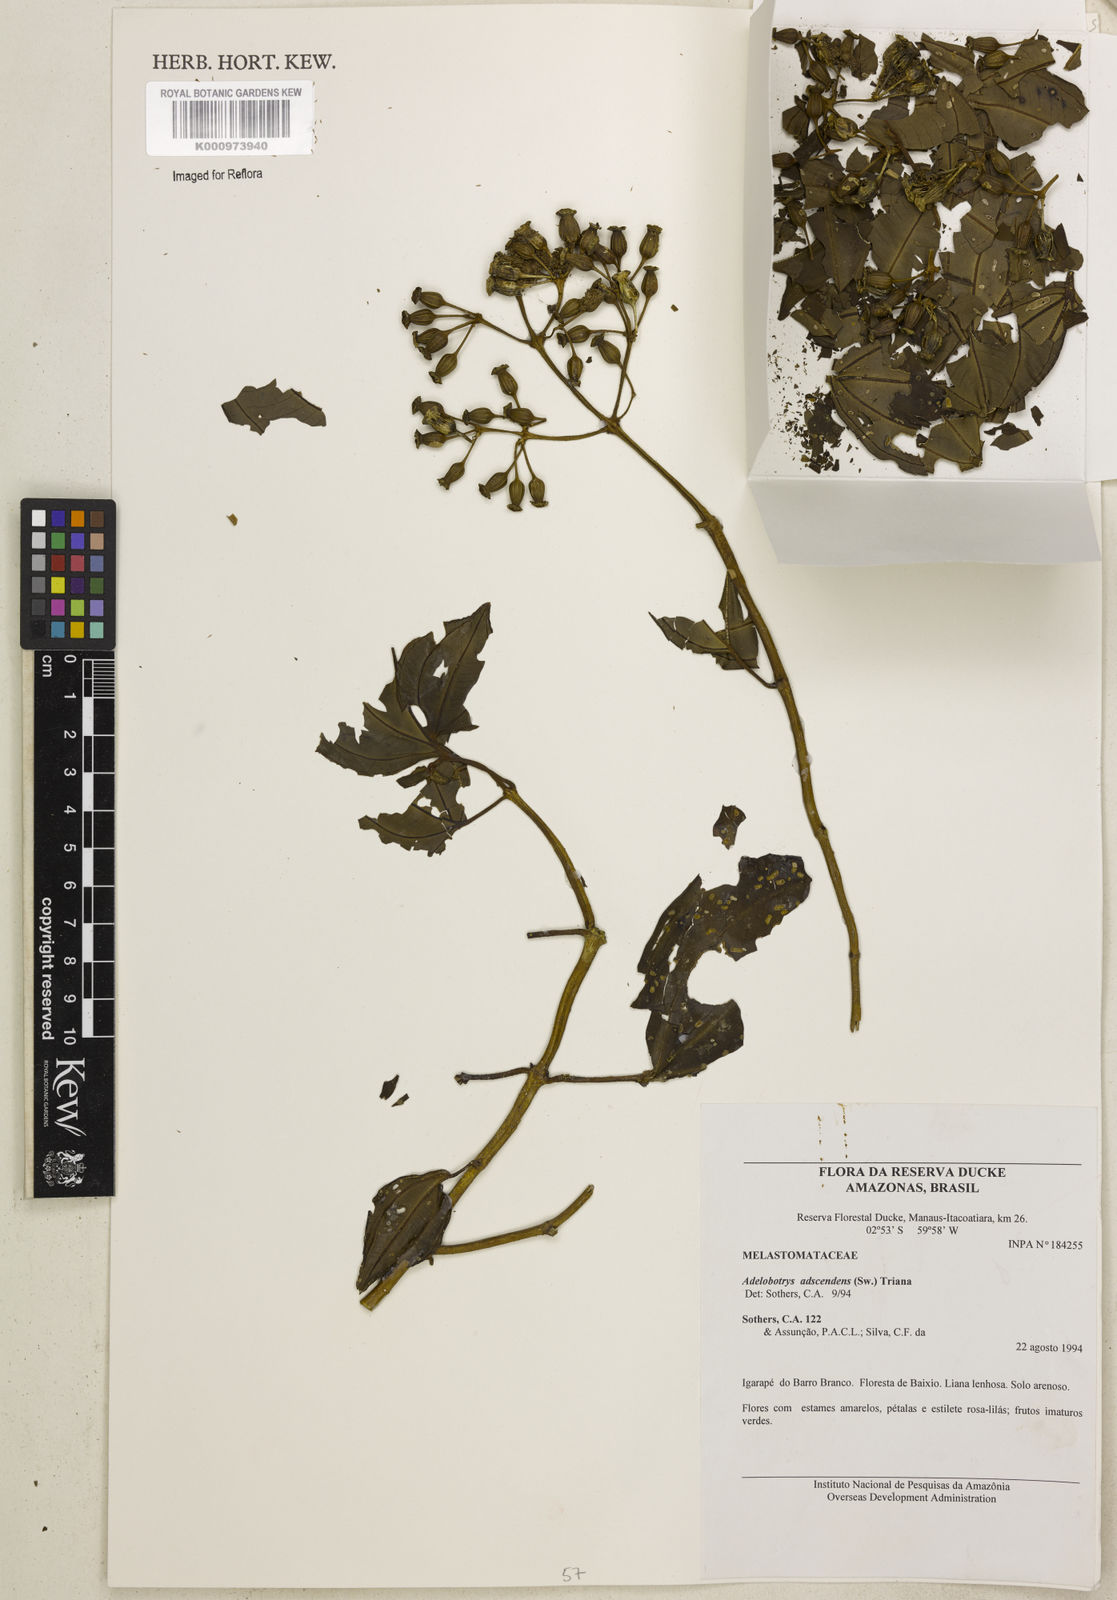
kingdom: Plantae
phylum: Tracheophyta
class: Magnoliopsida
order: Myrtales
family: Melastomataceae
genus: Adelobotrys
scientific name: Adelobotrys adscendens
